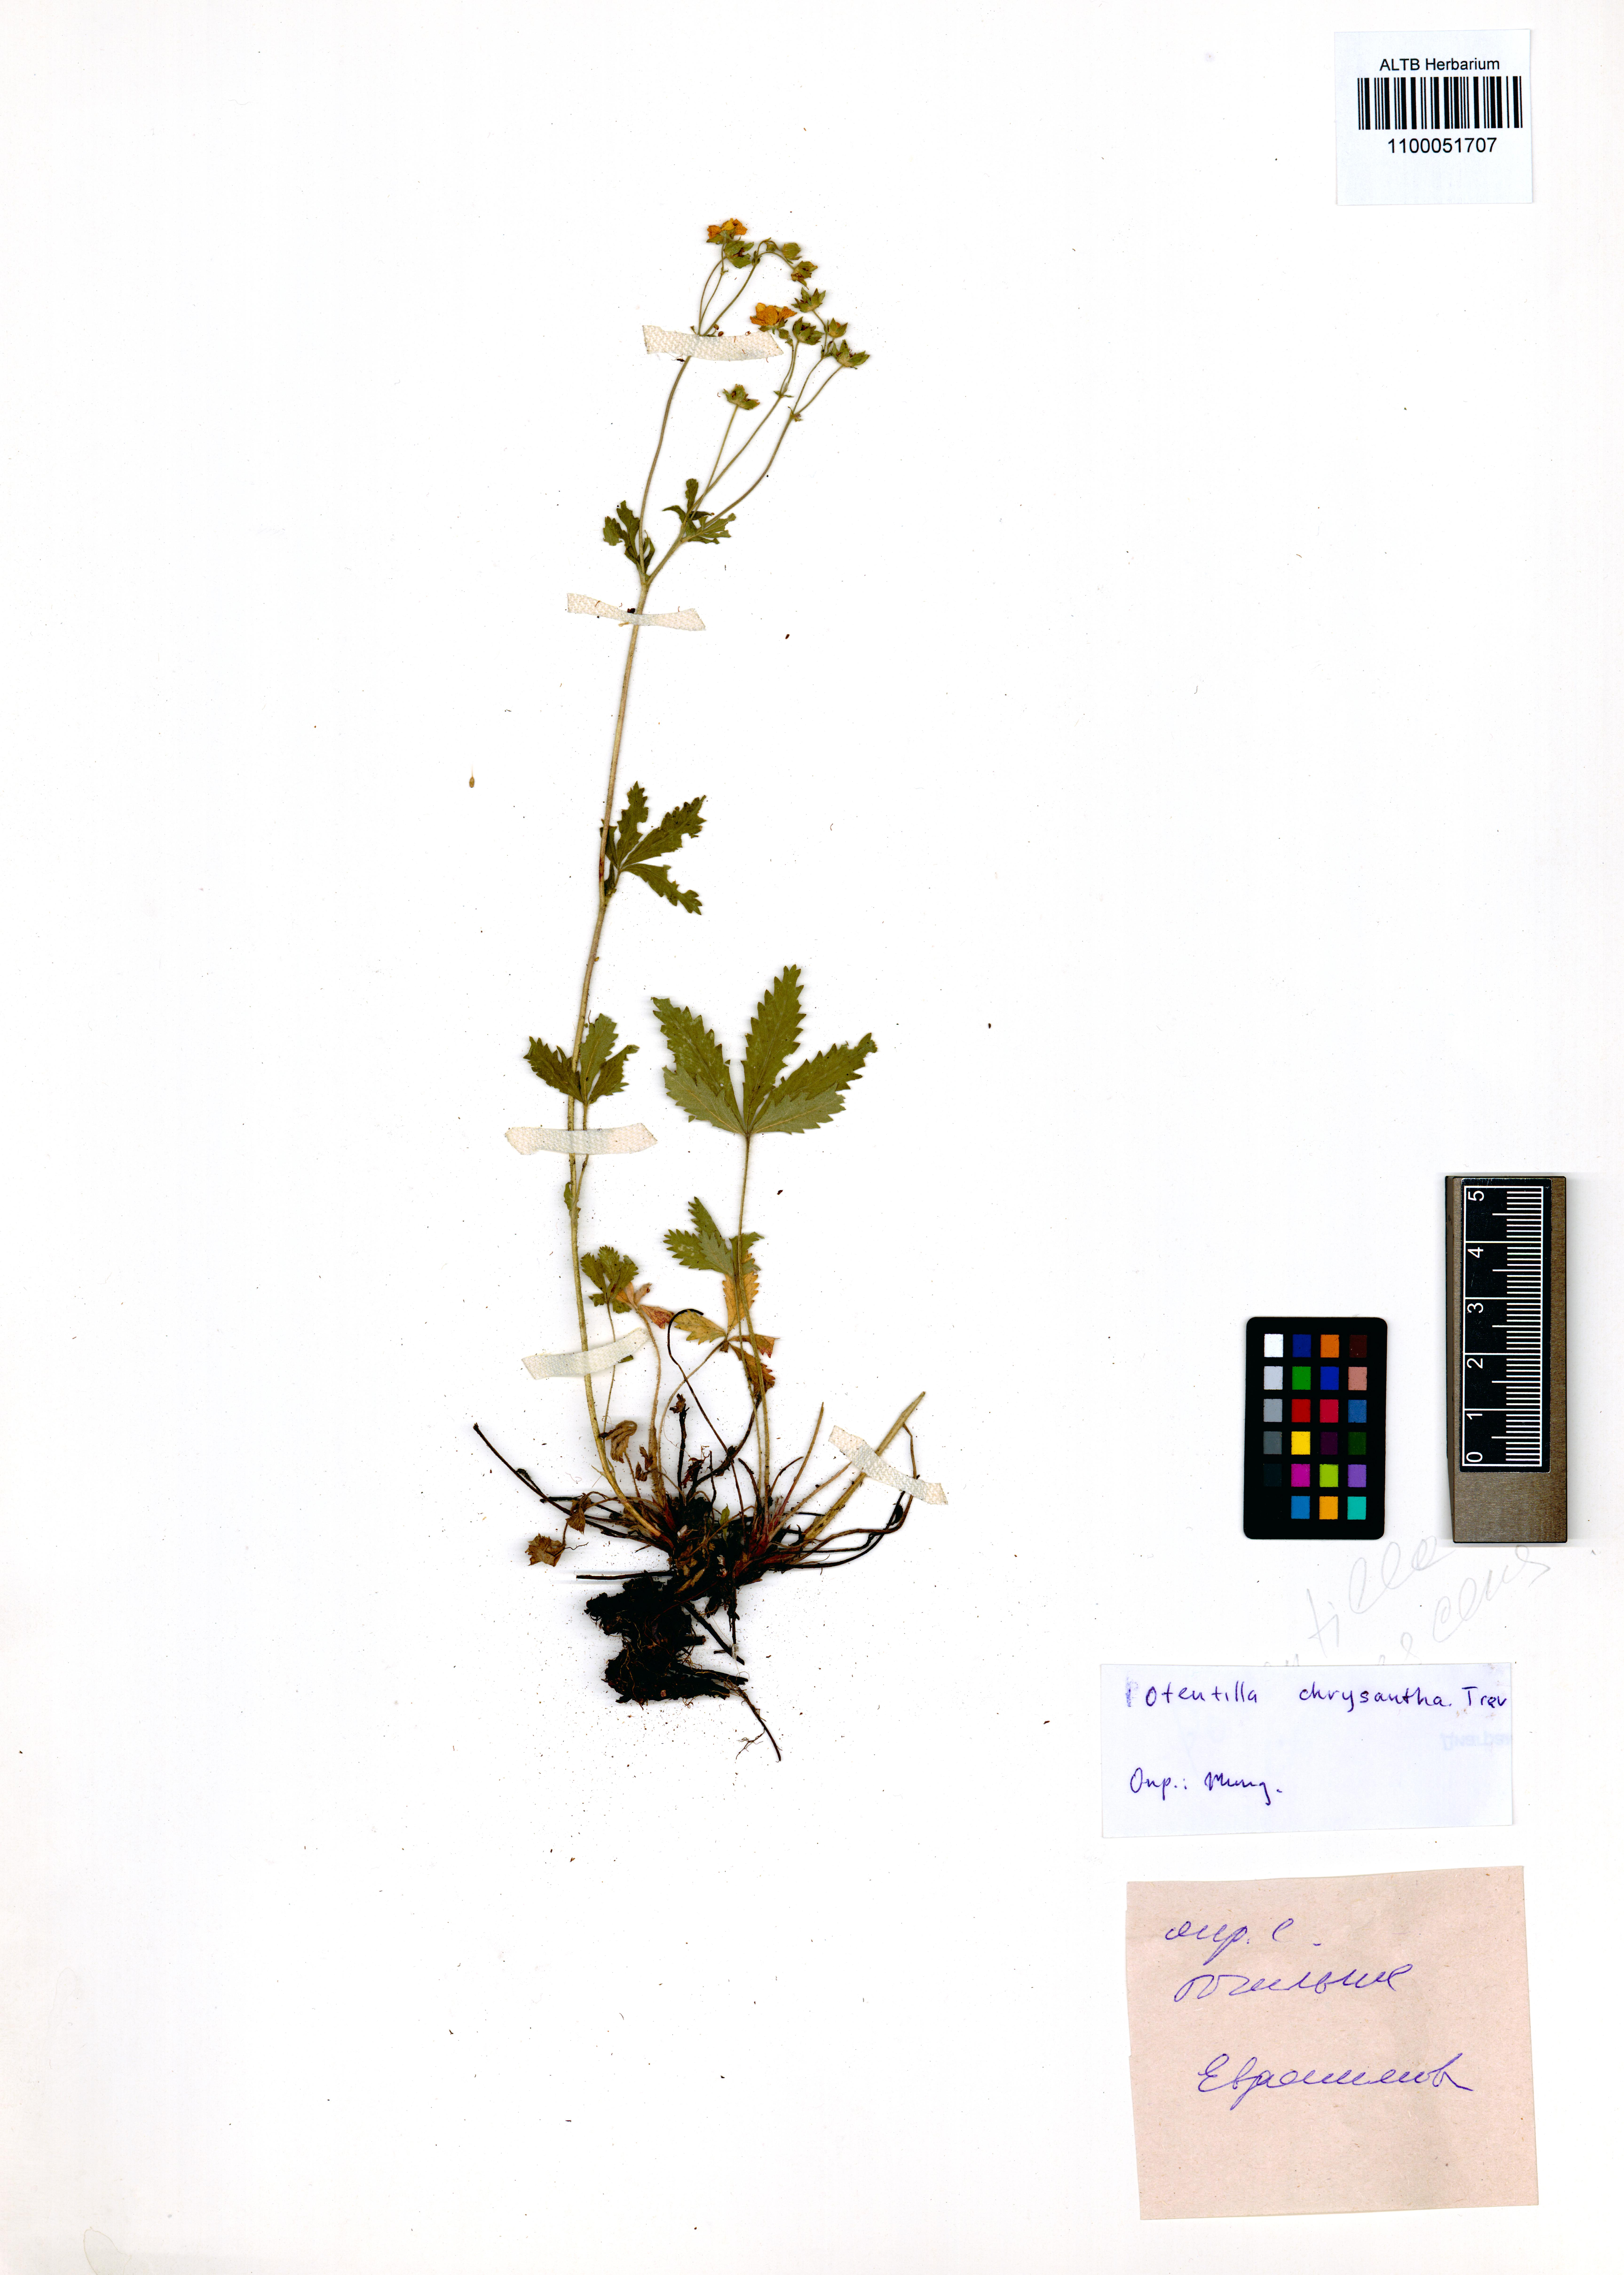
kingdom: Plantae
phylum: Tracheophyta
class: Magnoliopsida
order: Rosales
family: Rosaceae
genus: Potentilla
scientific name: Potentilla chrysantha
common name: Thuringian cinquefoil
